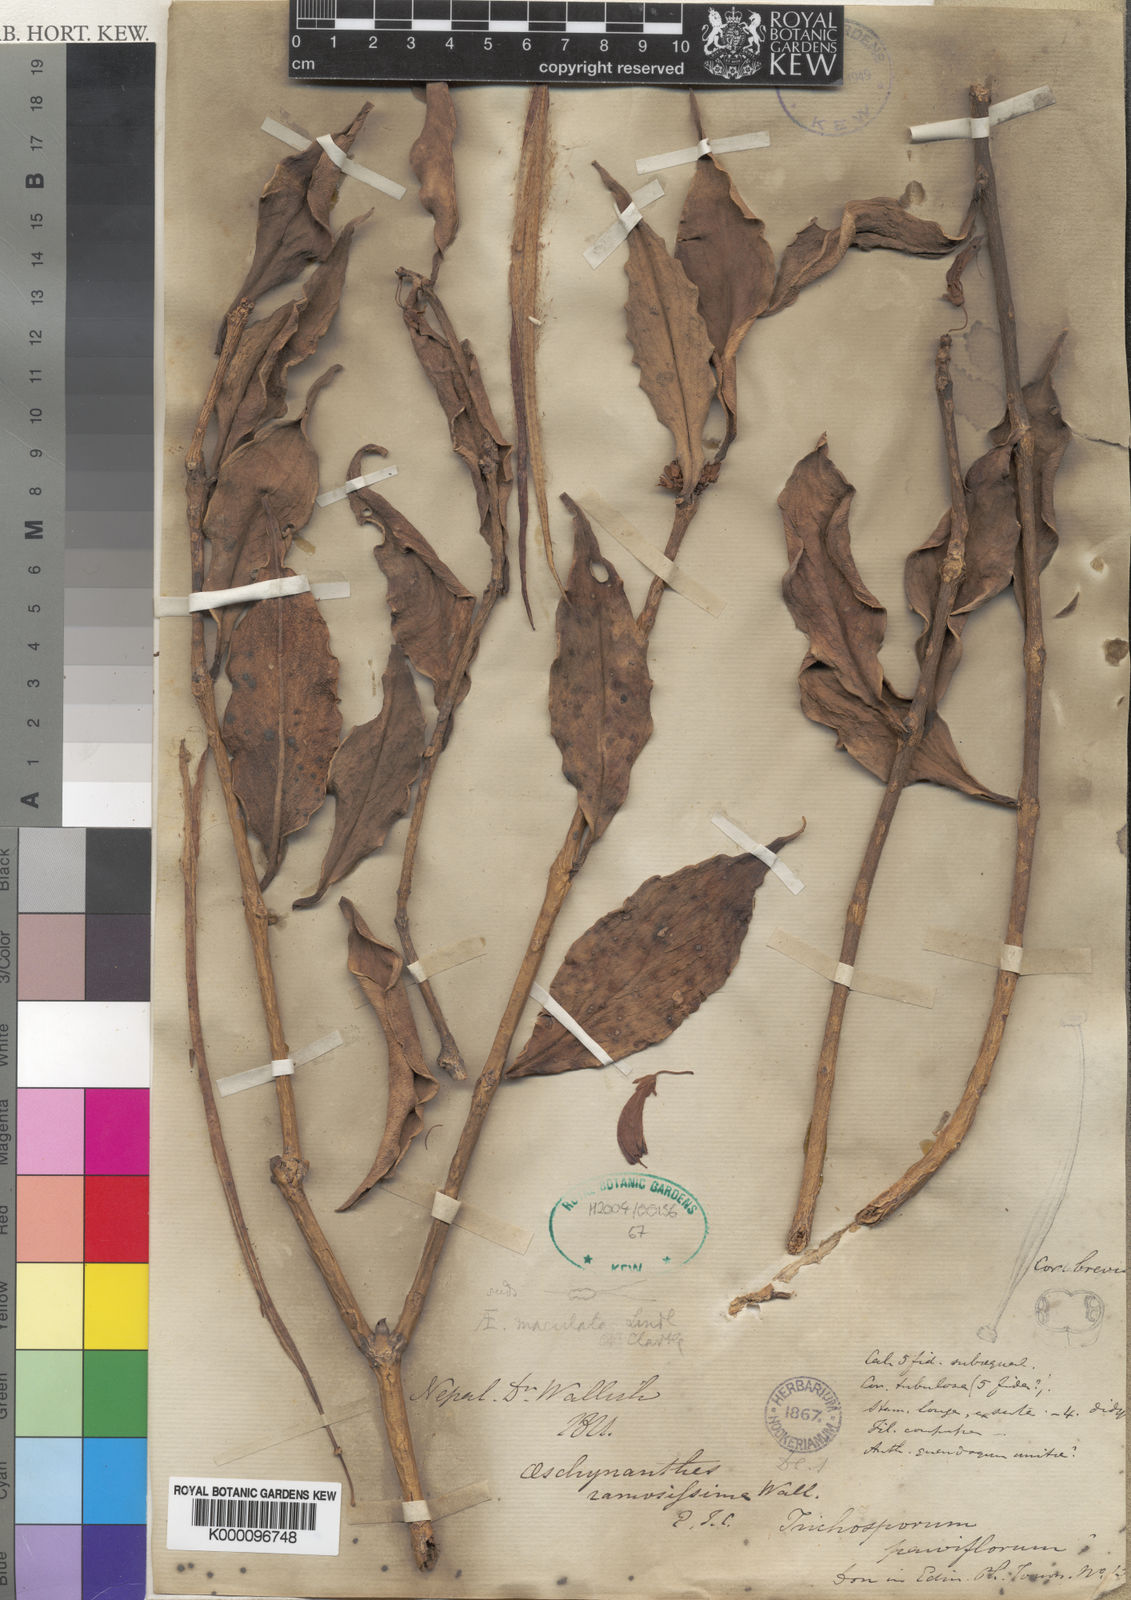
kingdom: Plantae
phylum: Tracheophyta
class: Magnoliopsida
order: Lamiales
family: Gesneriaceae
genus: Aeschynanthus
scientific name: Aeschynanthus parviflorus
